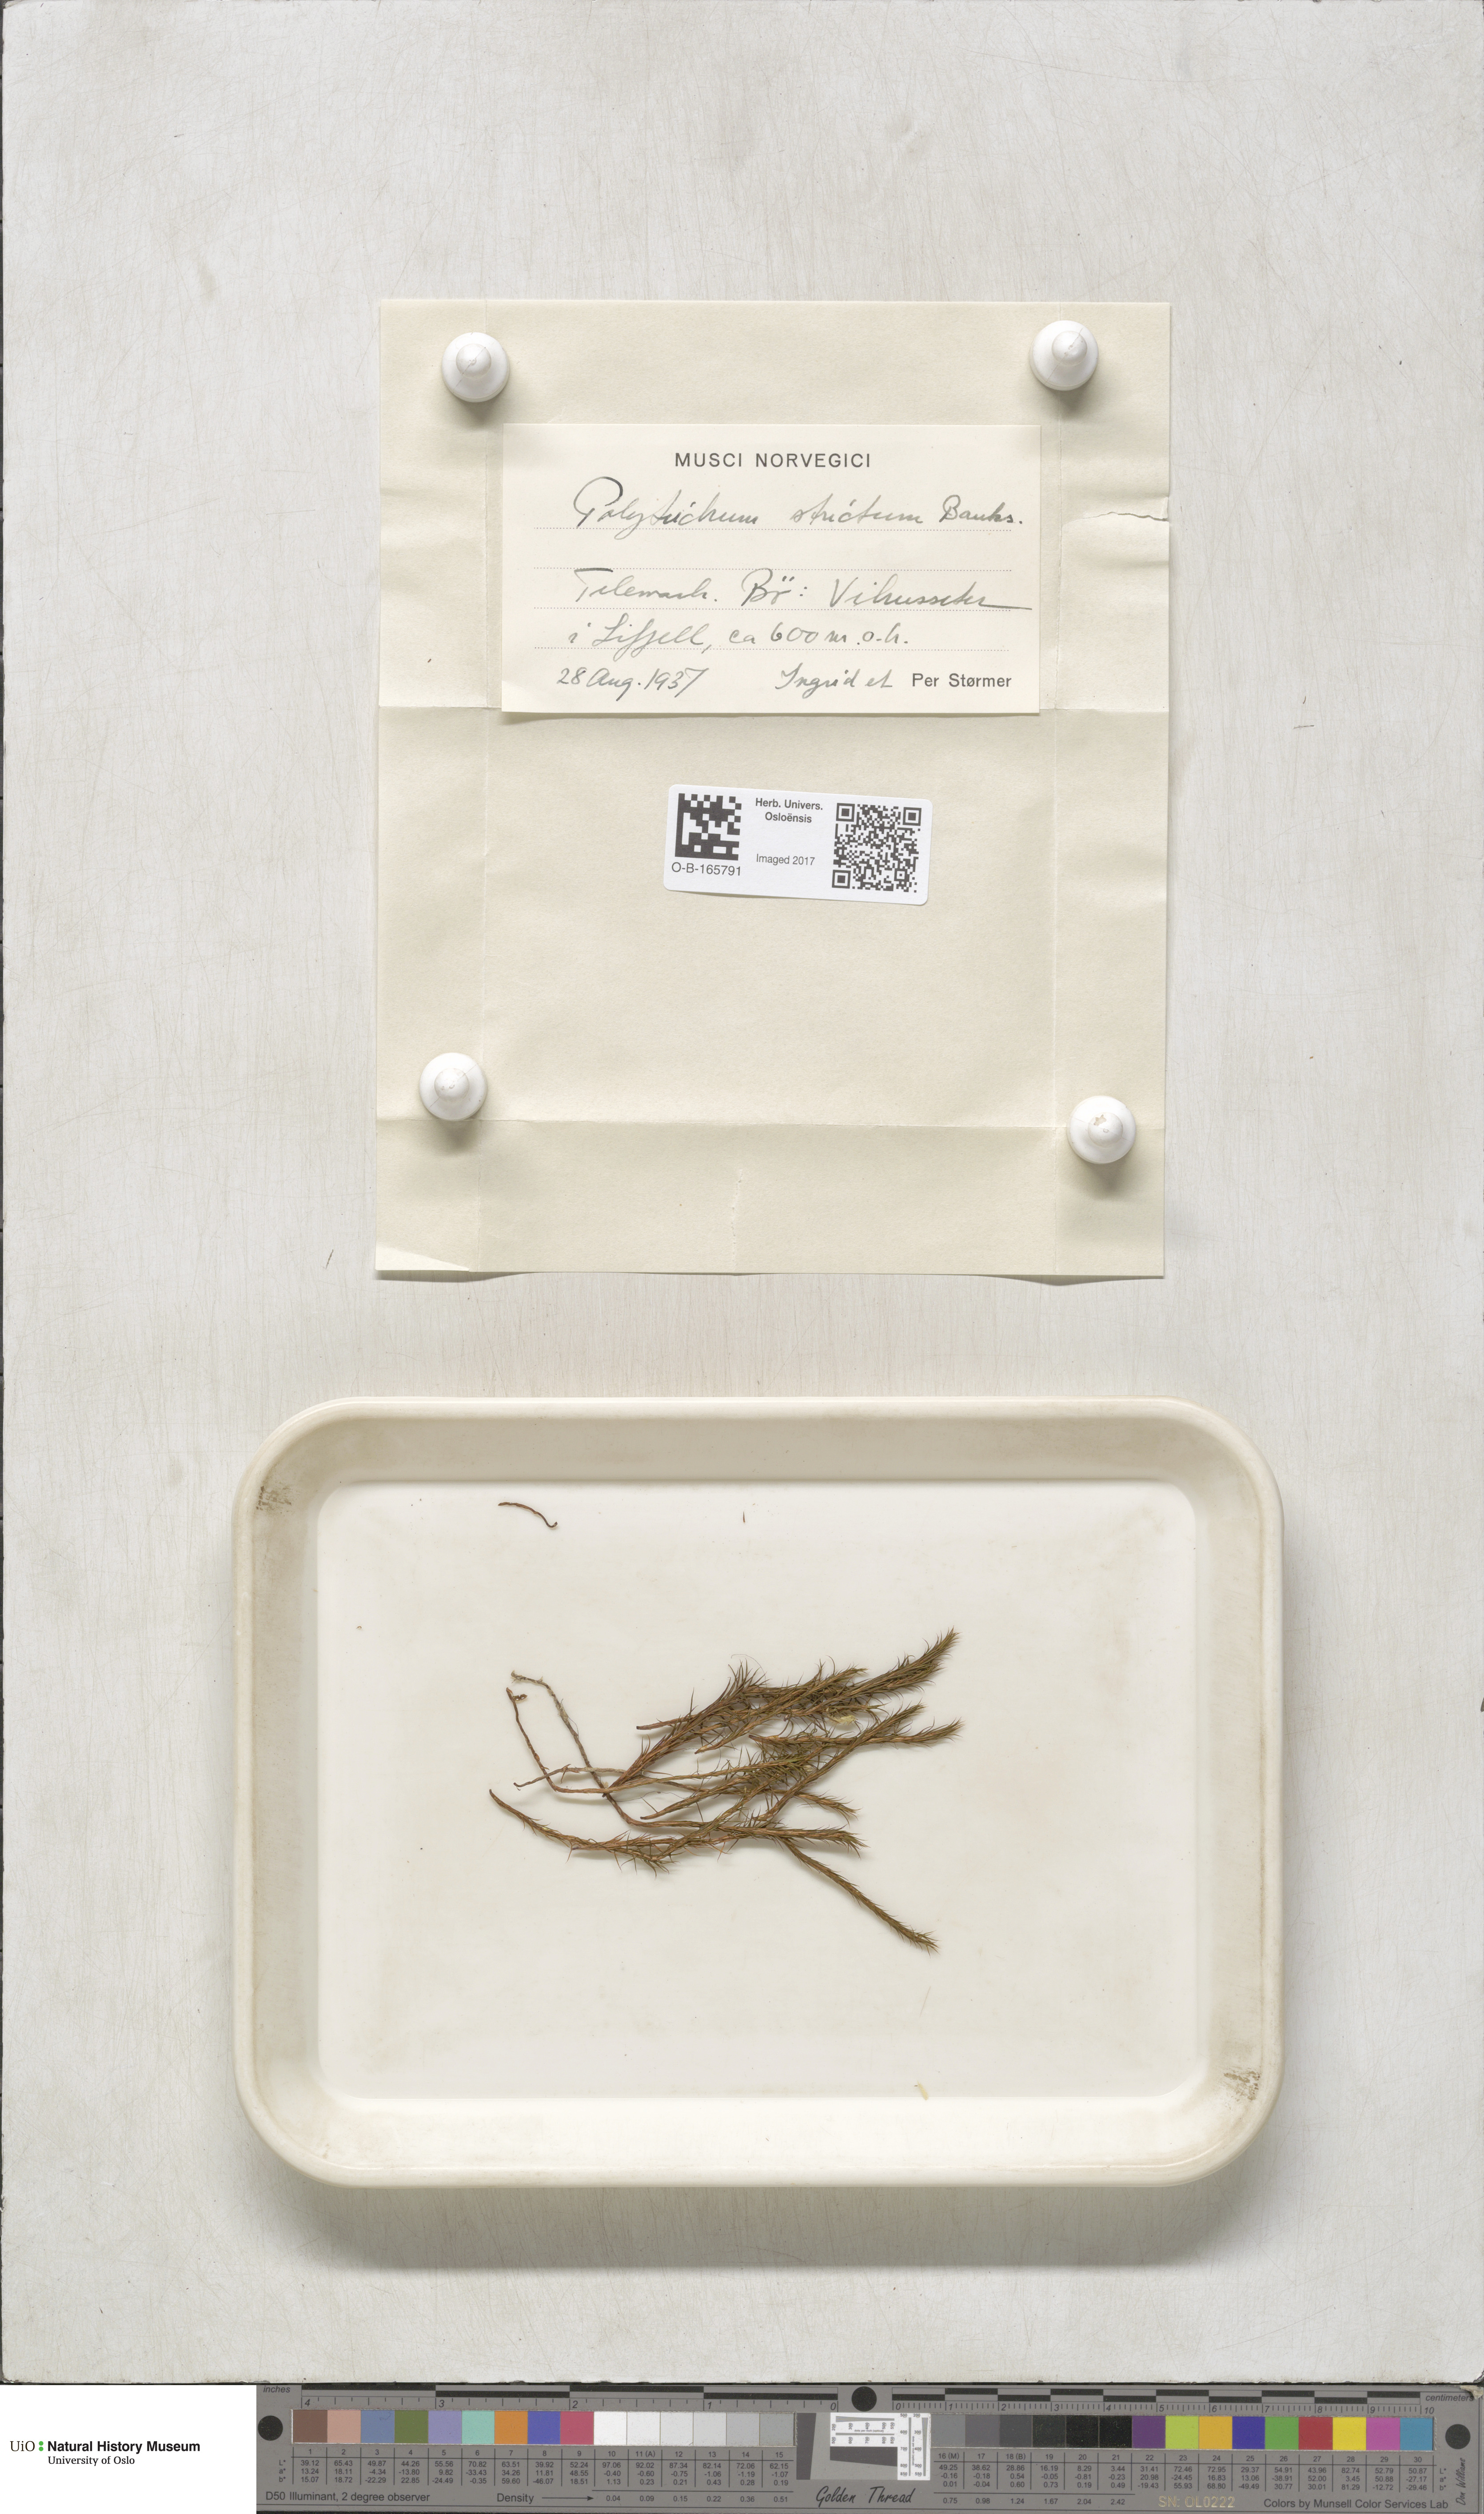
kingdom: Plantae
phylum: Bryophyta
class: Polytrichopsida
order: Polytrichales
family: Polytrichaceae
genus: Polytrichum
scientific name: Polytrichum strictum
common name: Bog haircap moss
